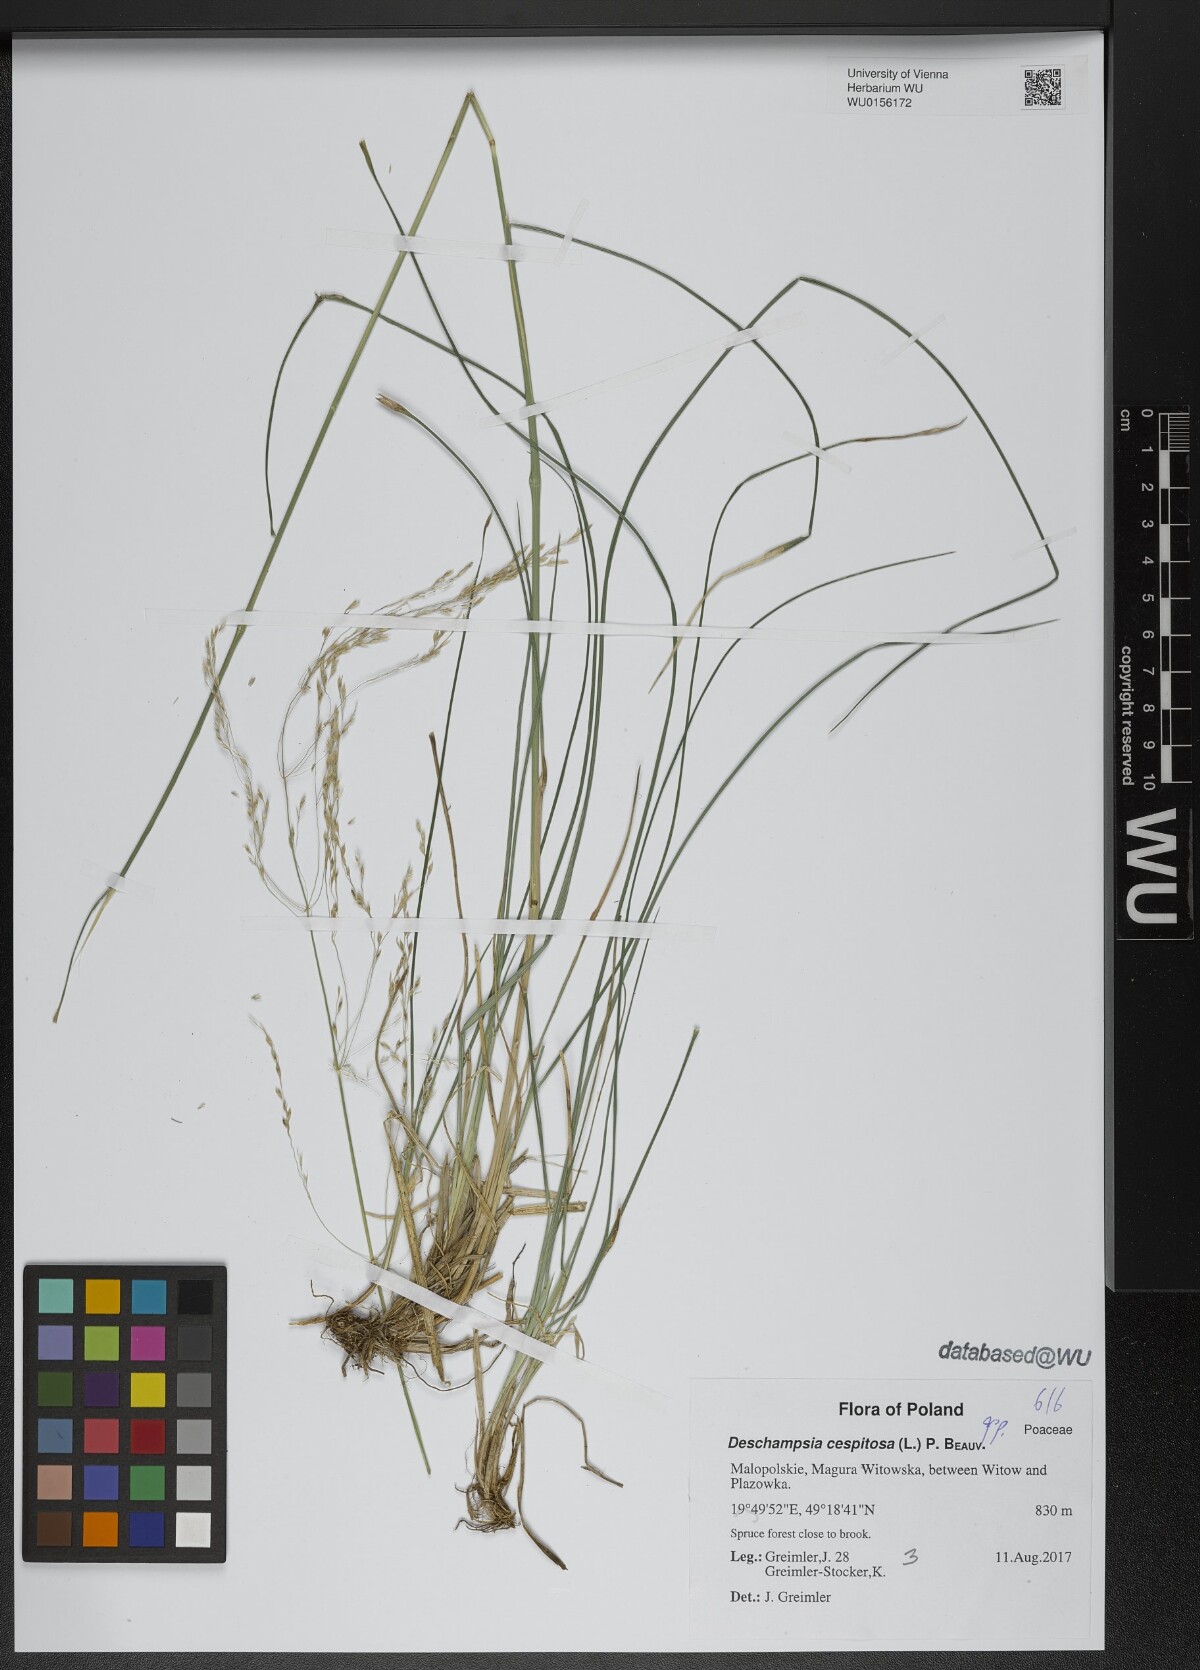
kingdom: Plantae
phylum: Tracheophyta
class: Liliopsida
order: Poales
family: Poaceae
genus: Deschampsia
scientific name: Deschampsia cespitosa
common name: Tufted hair-grass
